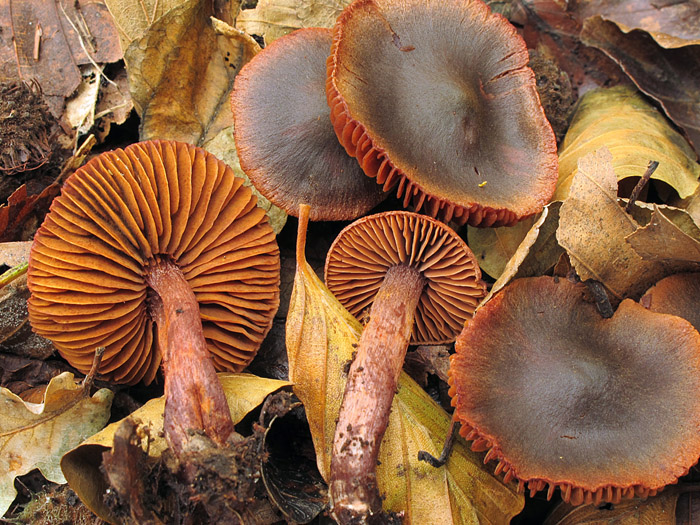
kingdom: Fungi
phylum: Basidiomycota
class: Agaricomycetes
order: Agaricales
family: Cortinariaceae
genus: Cortinarius
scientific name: Cortinarius anthracinus
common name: purpursort slørhat
